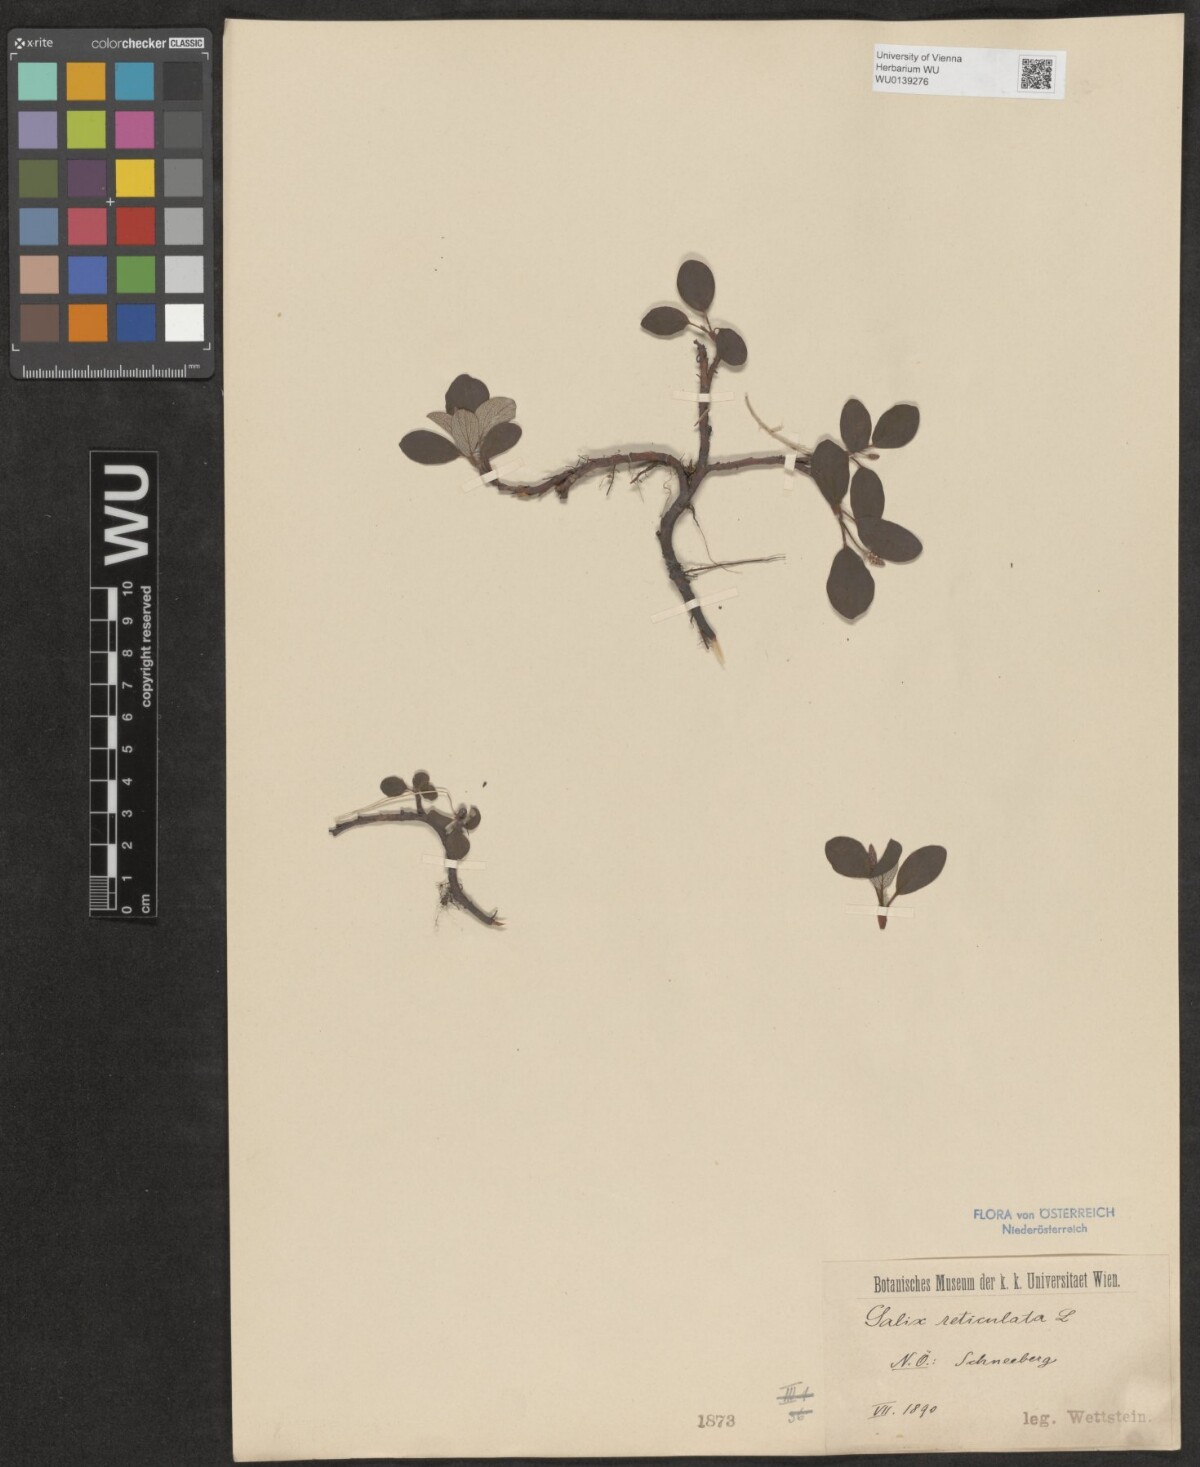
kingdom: Plantae
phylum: Tracheophyta
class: Magnoliopsida
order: Malpighiales
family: Salicaceae
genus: Salix
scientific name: Salix reticulata
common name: Net-leaved willow
